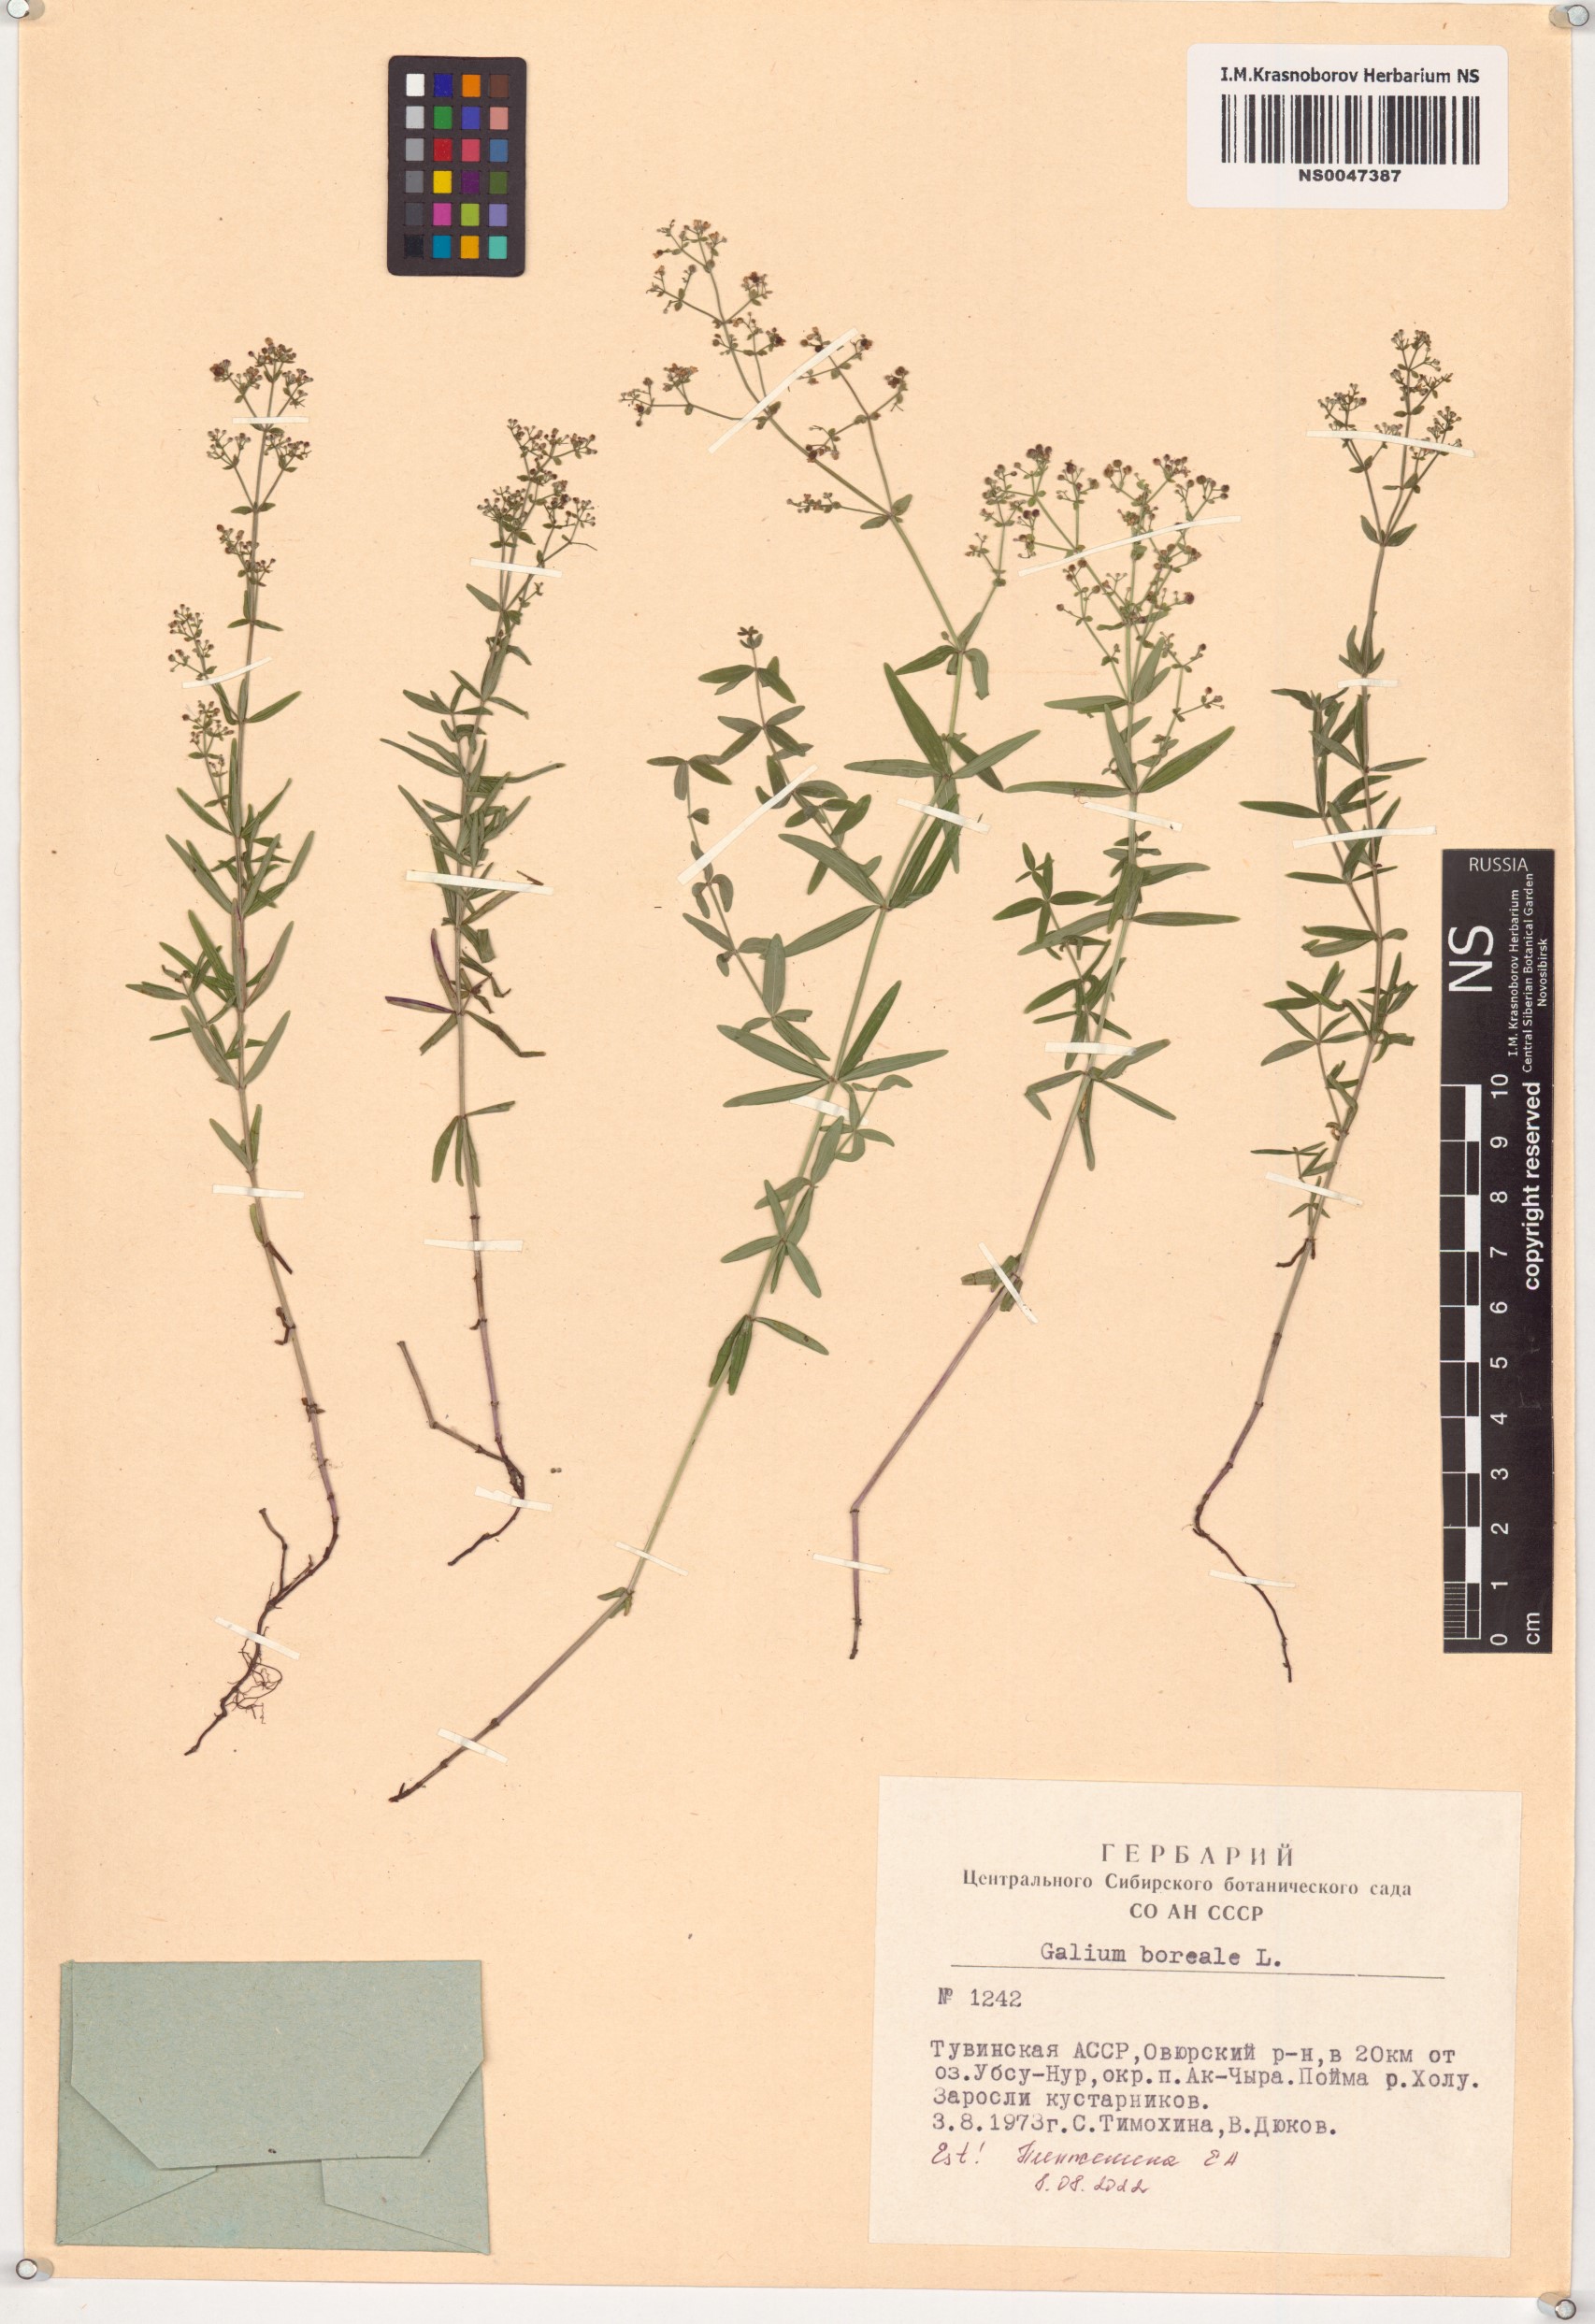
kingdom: Plantae
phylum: Tracheophyta
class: Magnoliopsida
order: Gentianales
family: Rubiaceae
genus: Galium
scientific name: Galium boreale
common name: Northern bedstraw
